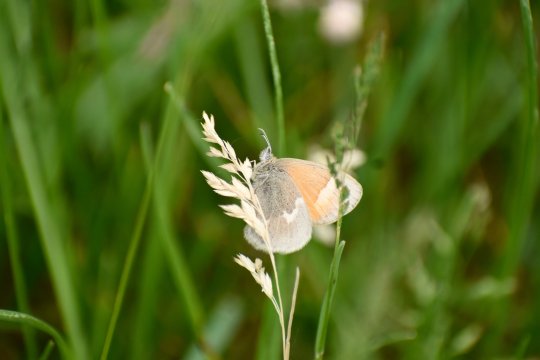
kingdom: Animalia
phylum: Arthropoda
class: Insecta
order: Lepidoptera
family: Nymphalidae
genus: Coenonympha
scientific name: Coenonympha california
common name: California Ringlet
